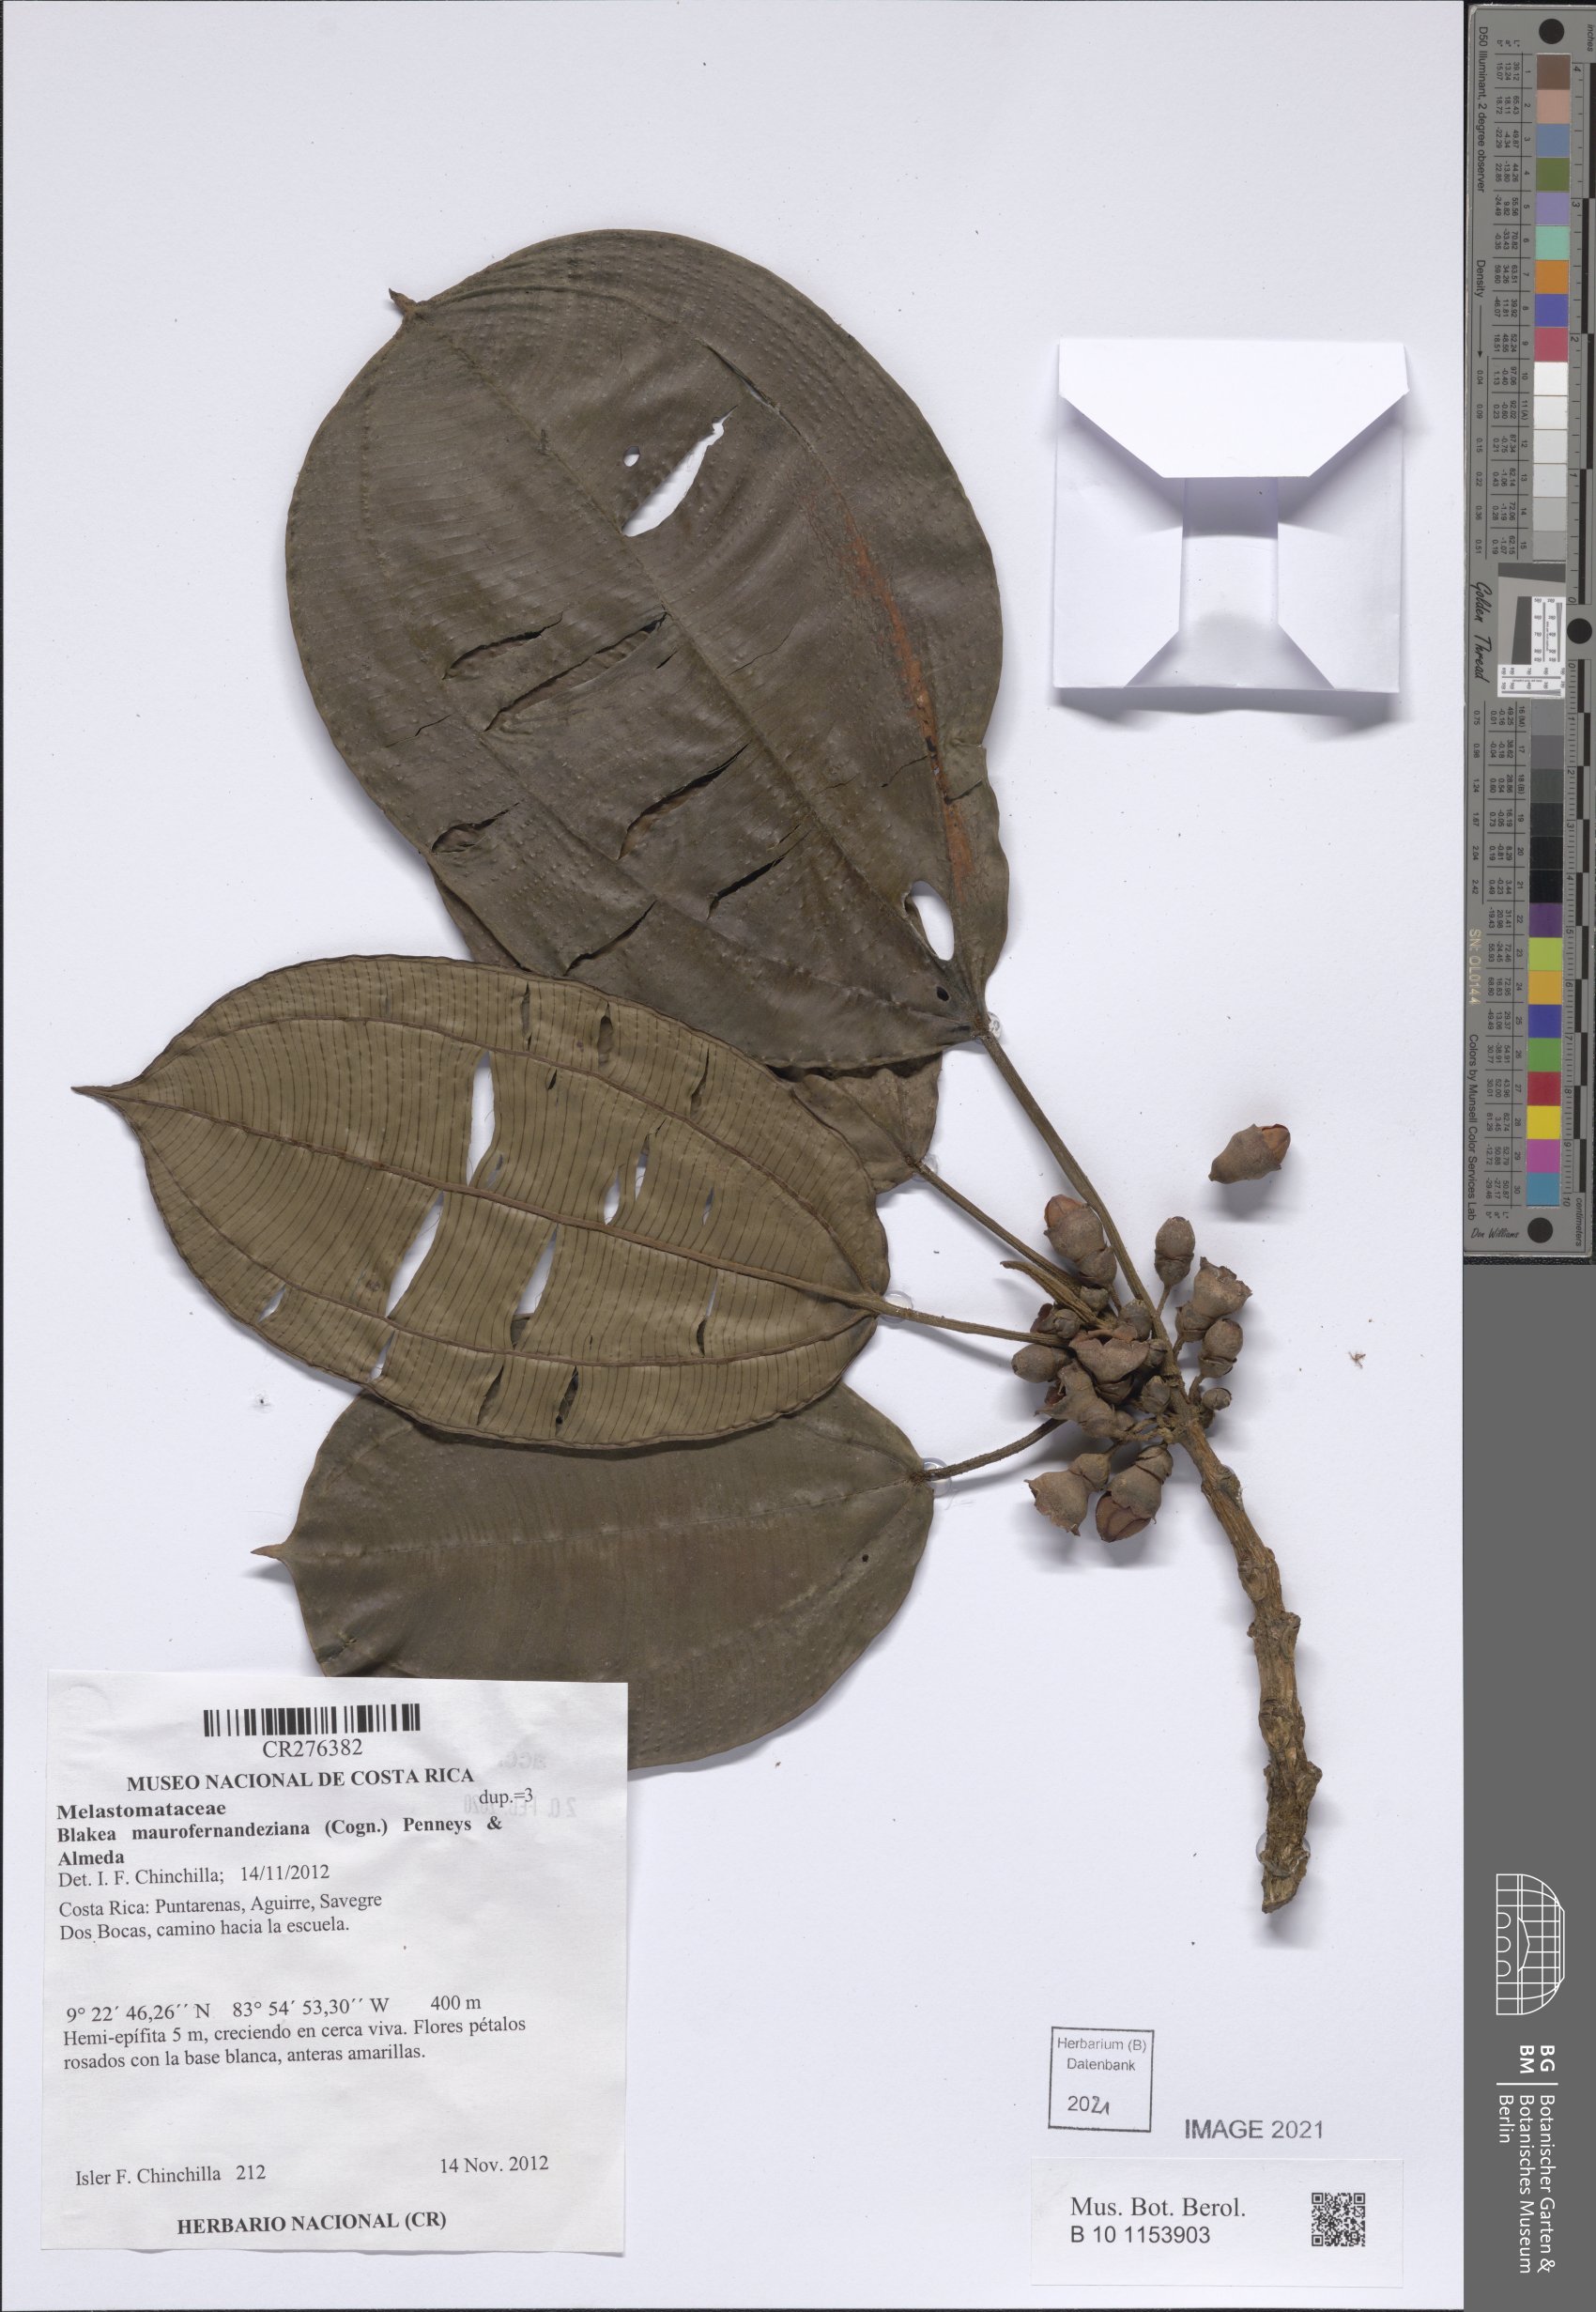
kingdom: Plantae
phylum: Tracheophyta
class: Magnoliopsida
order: Myrtales
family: Melastomataceae
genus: Blakea
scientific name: Blakea maurofernandeziana
